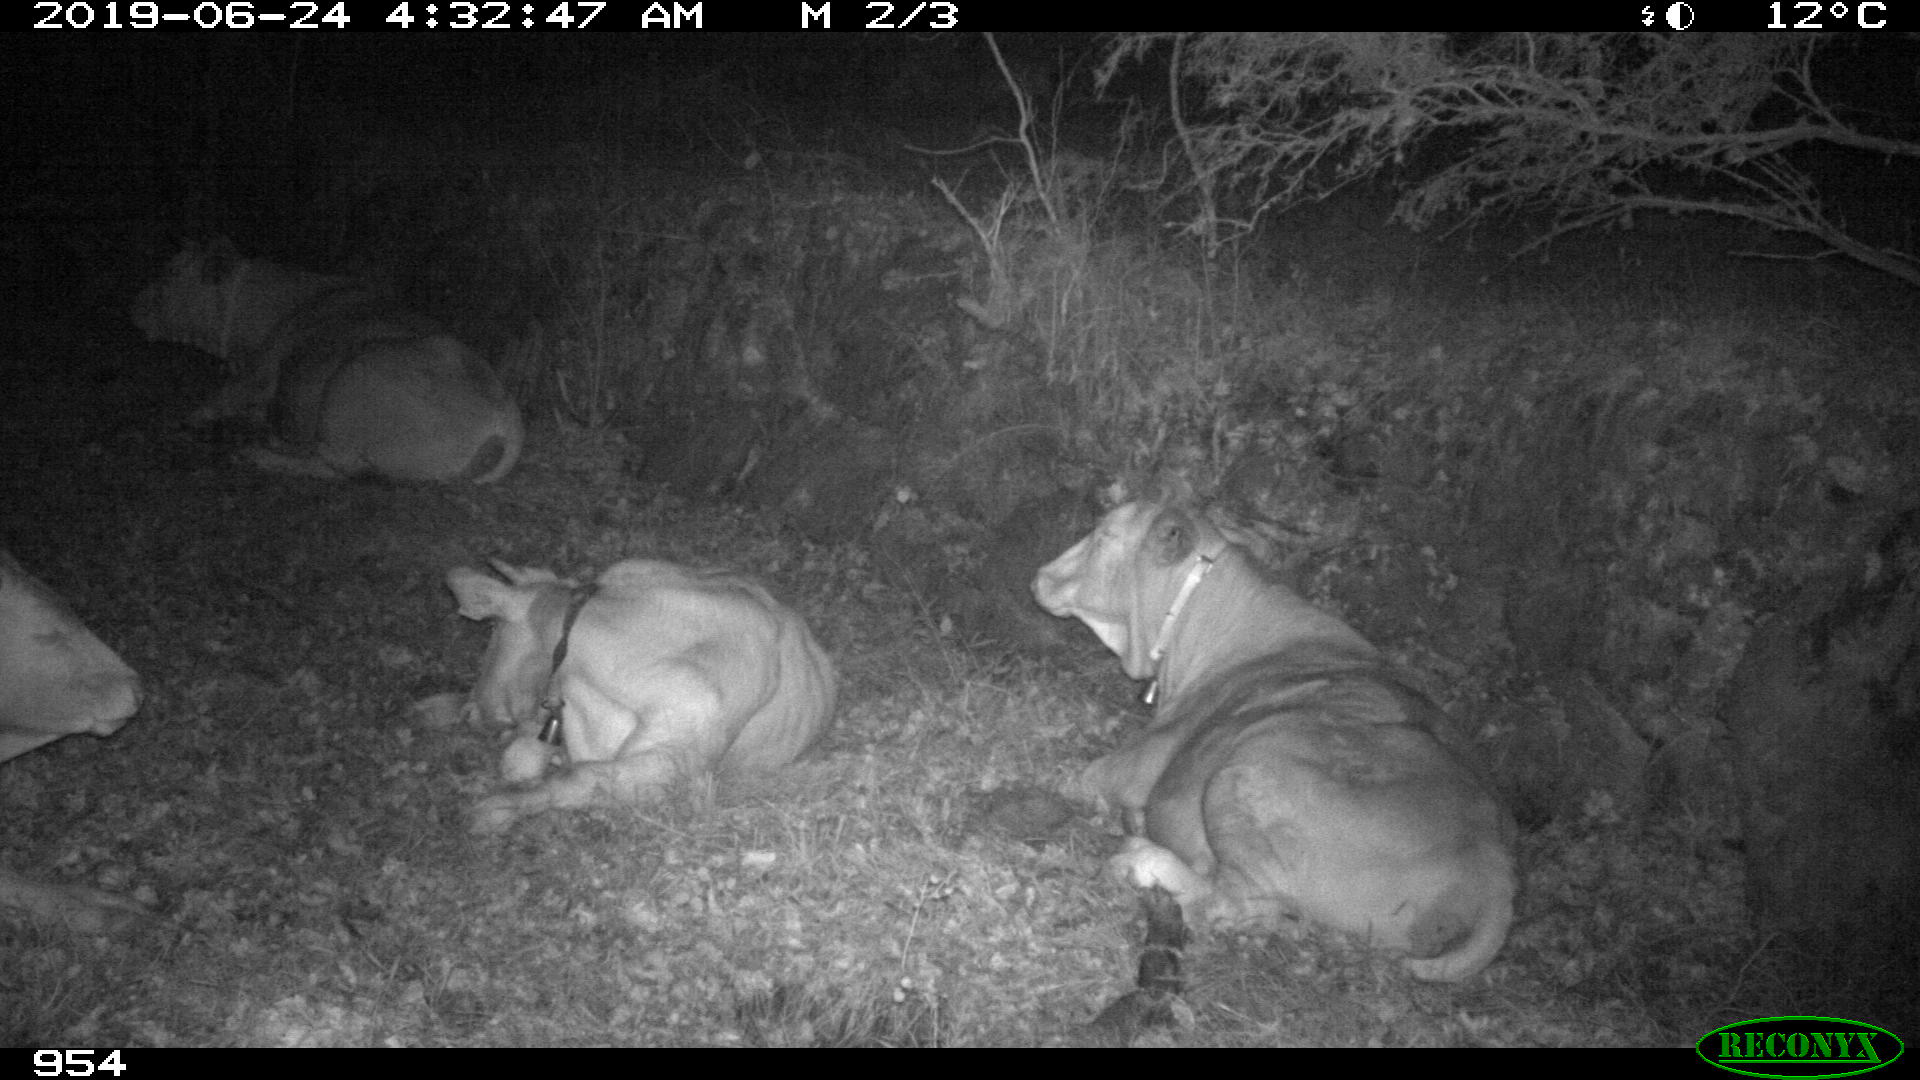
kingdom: Animalia
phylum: Chordata
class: Mammalia
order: Artiodactyla
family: Bovidae
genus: Bos
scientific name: Bos taurus
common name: Domesticated cattle
